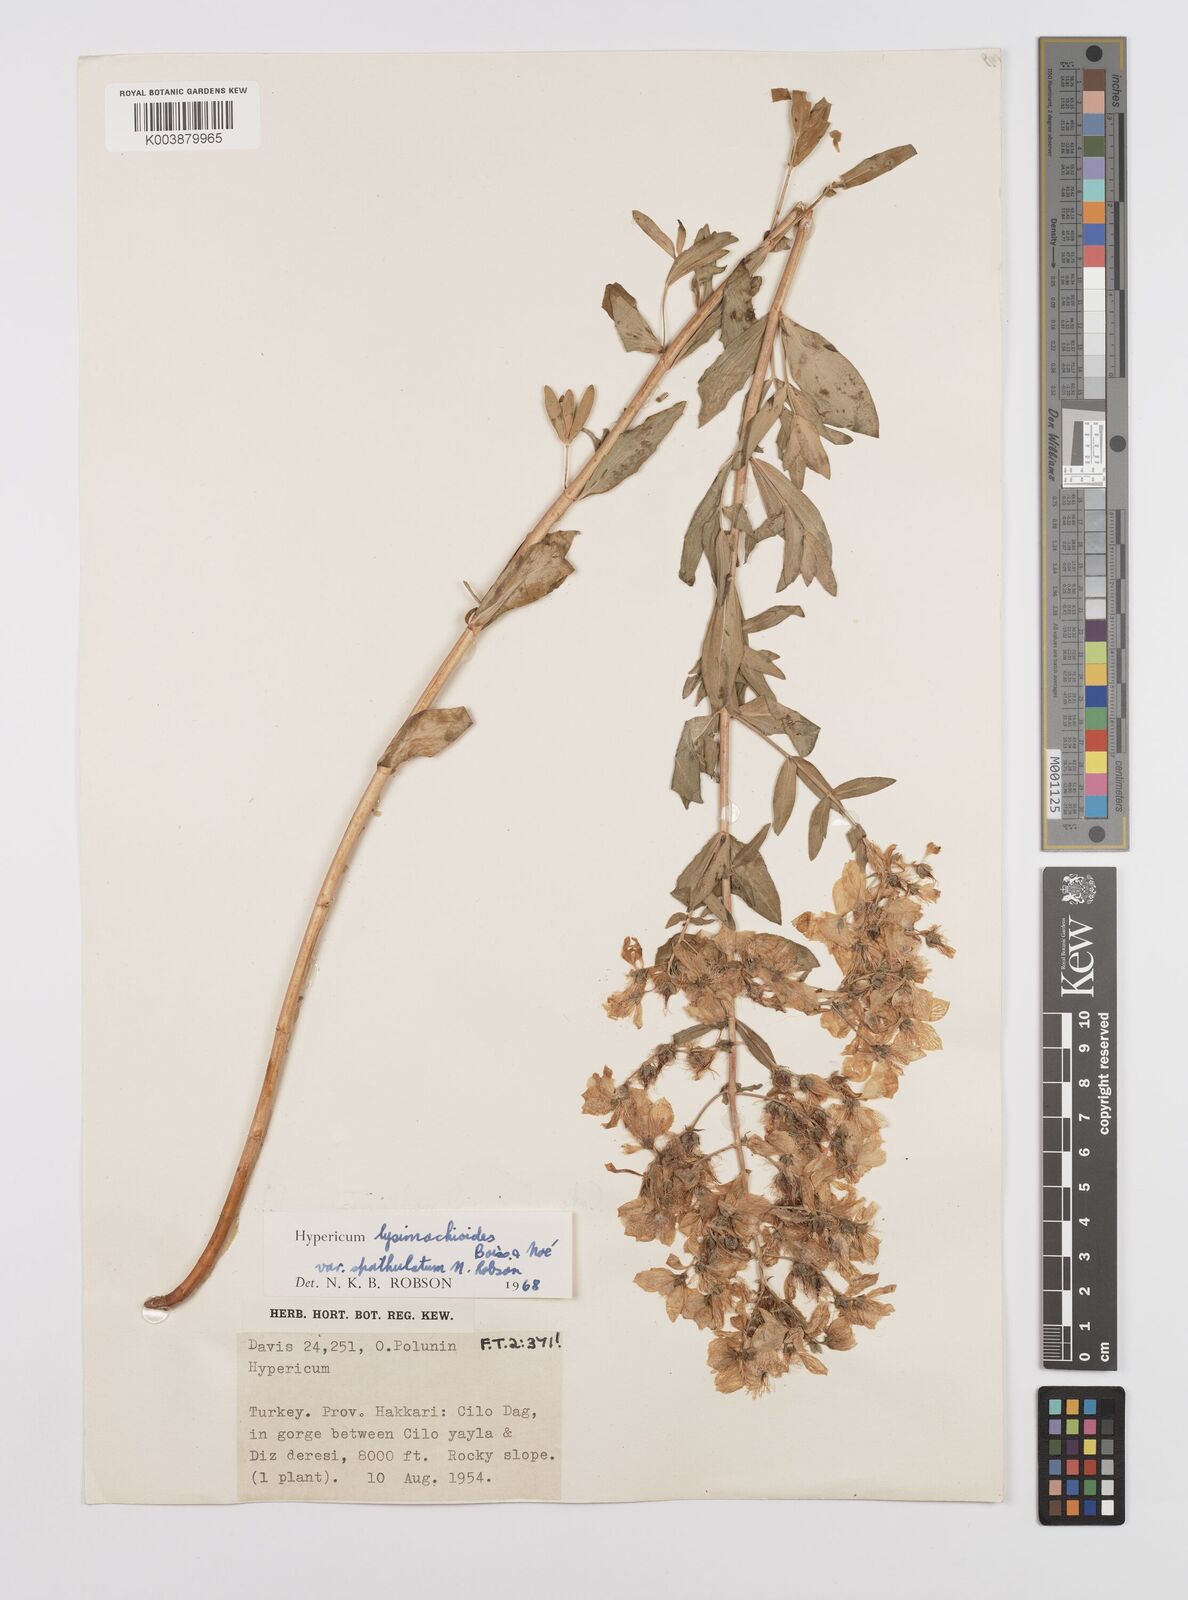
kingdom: Plantae
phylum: Tracheophyta
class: Magnoliopsida
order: Malpighiales
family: Hypericaceae
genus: Hypericum
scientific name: Hypericum lysimachioides
